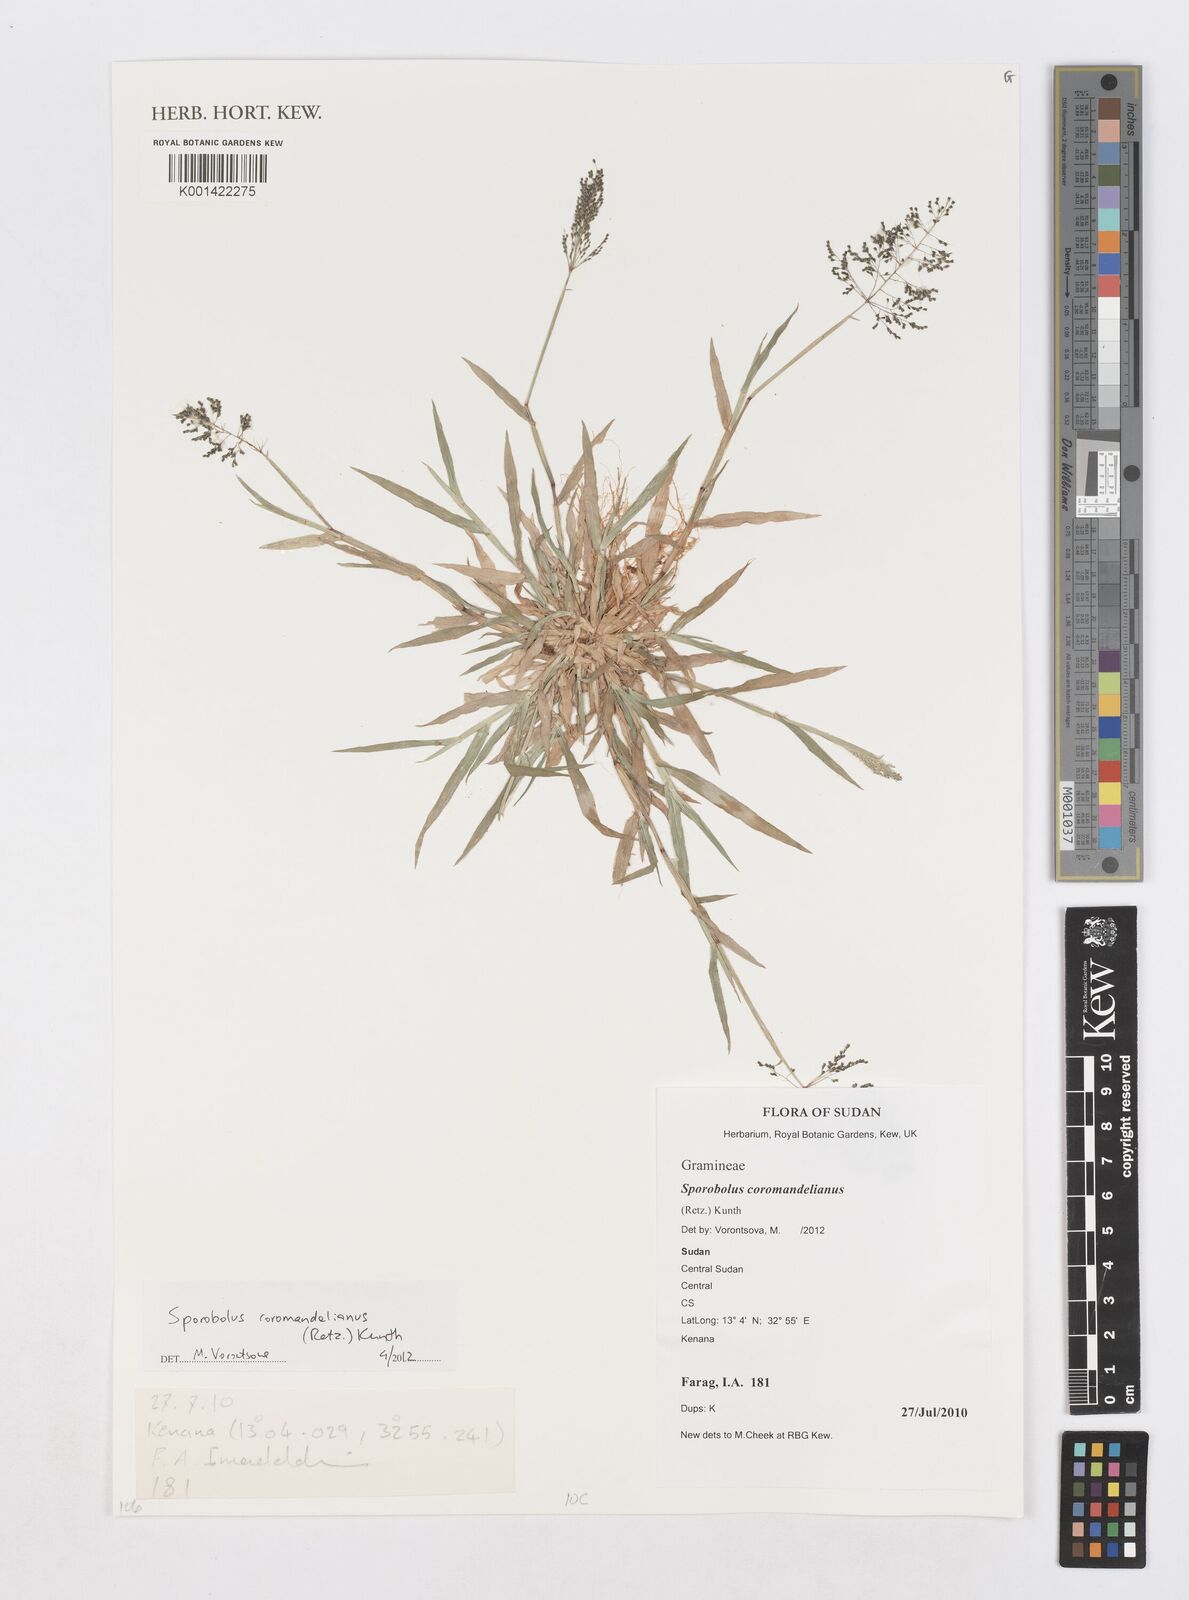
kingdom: Plantae
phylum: Tracheophyta
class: Liliopsida
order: Poales
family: Poaceae
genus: Sporobolus
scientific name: Sporobolus coromandelianus
